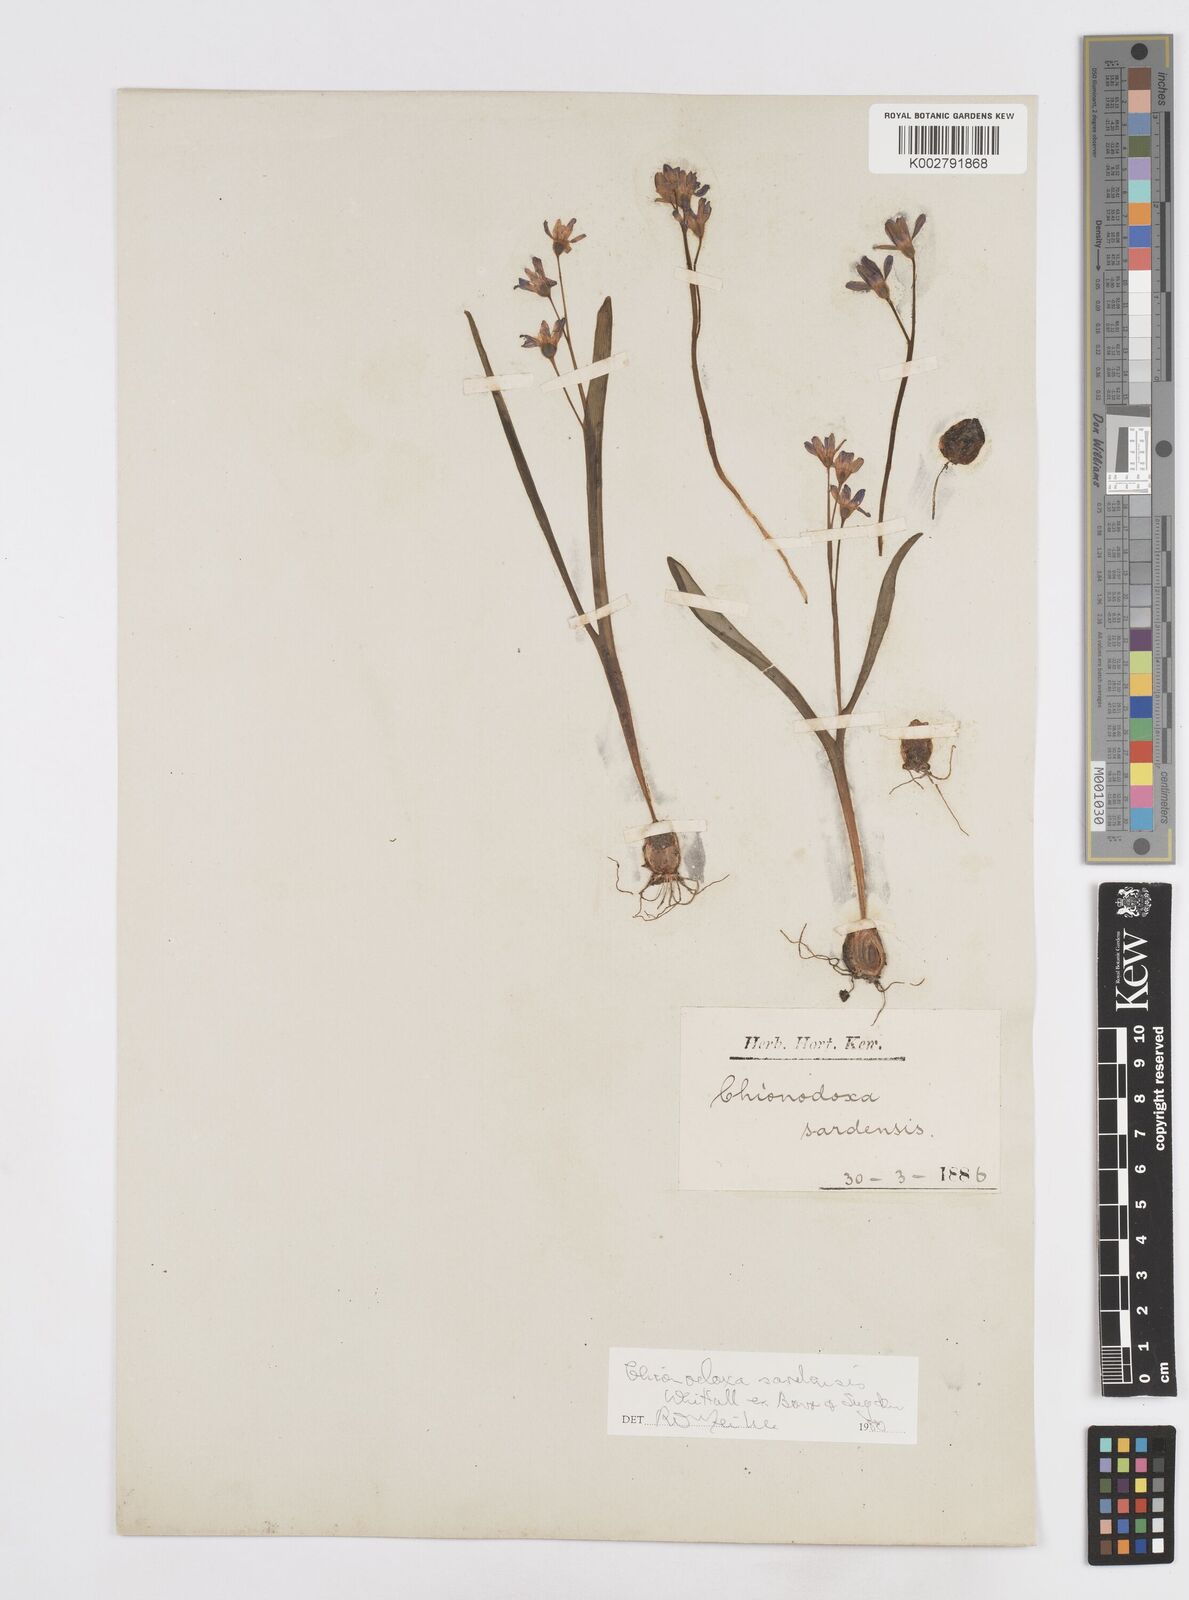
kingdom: Plantae
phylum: Tracheophyta
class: Liliopsida
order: Asparagales
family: Asparagaceae
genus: Scilla
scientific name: Scilla sardensis
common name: Lesser glory-of-the-snow
